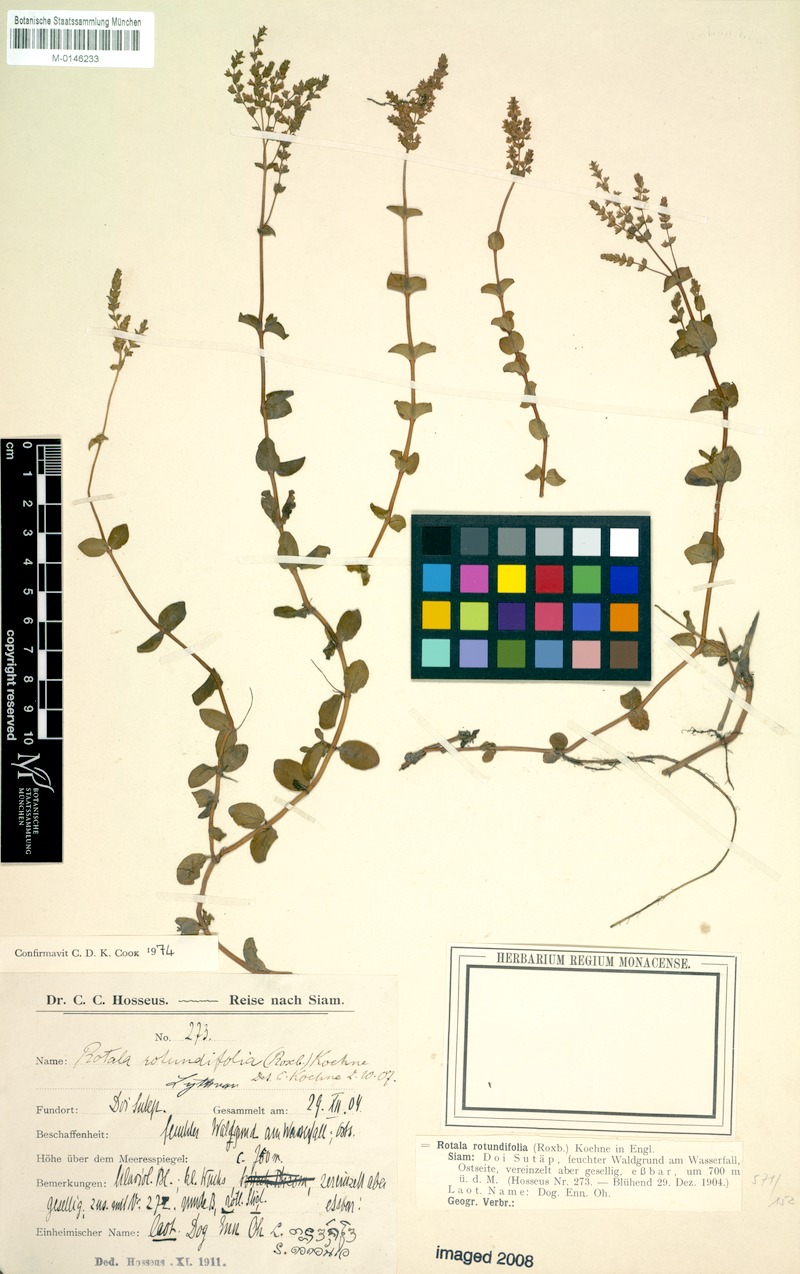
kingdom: Plantae
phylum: Tracheophyta
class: Magnoliopsida
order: Myrtales
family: Lythraceae
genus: Rotala
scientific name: Rotala rotundifolia
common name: Roundleaf toothcup
